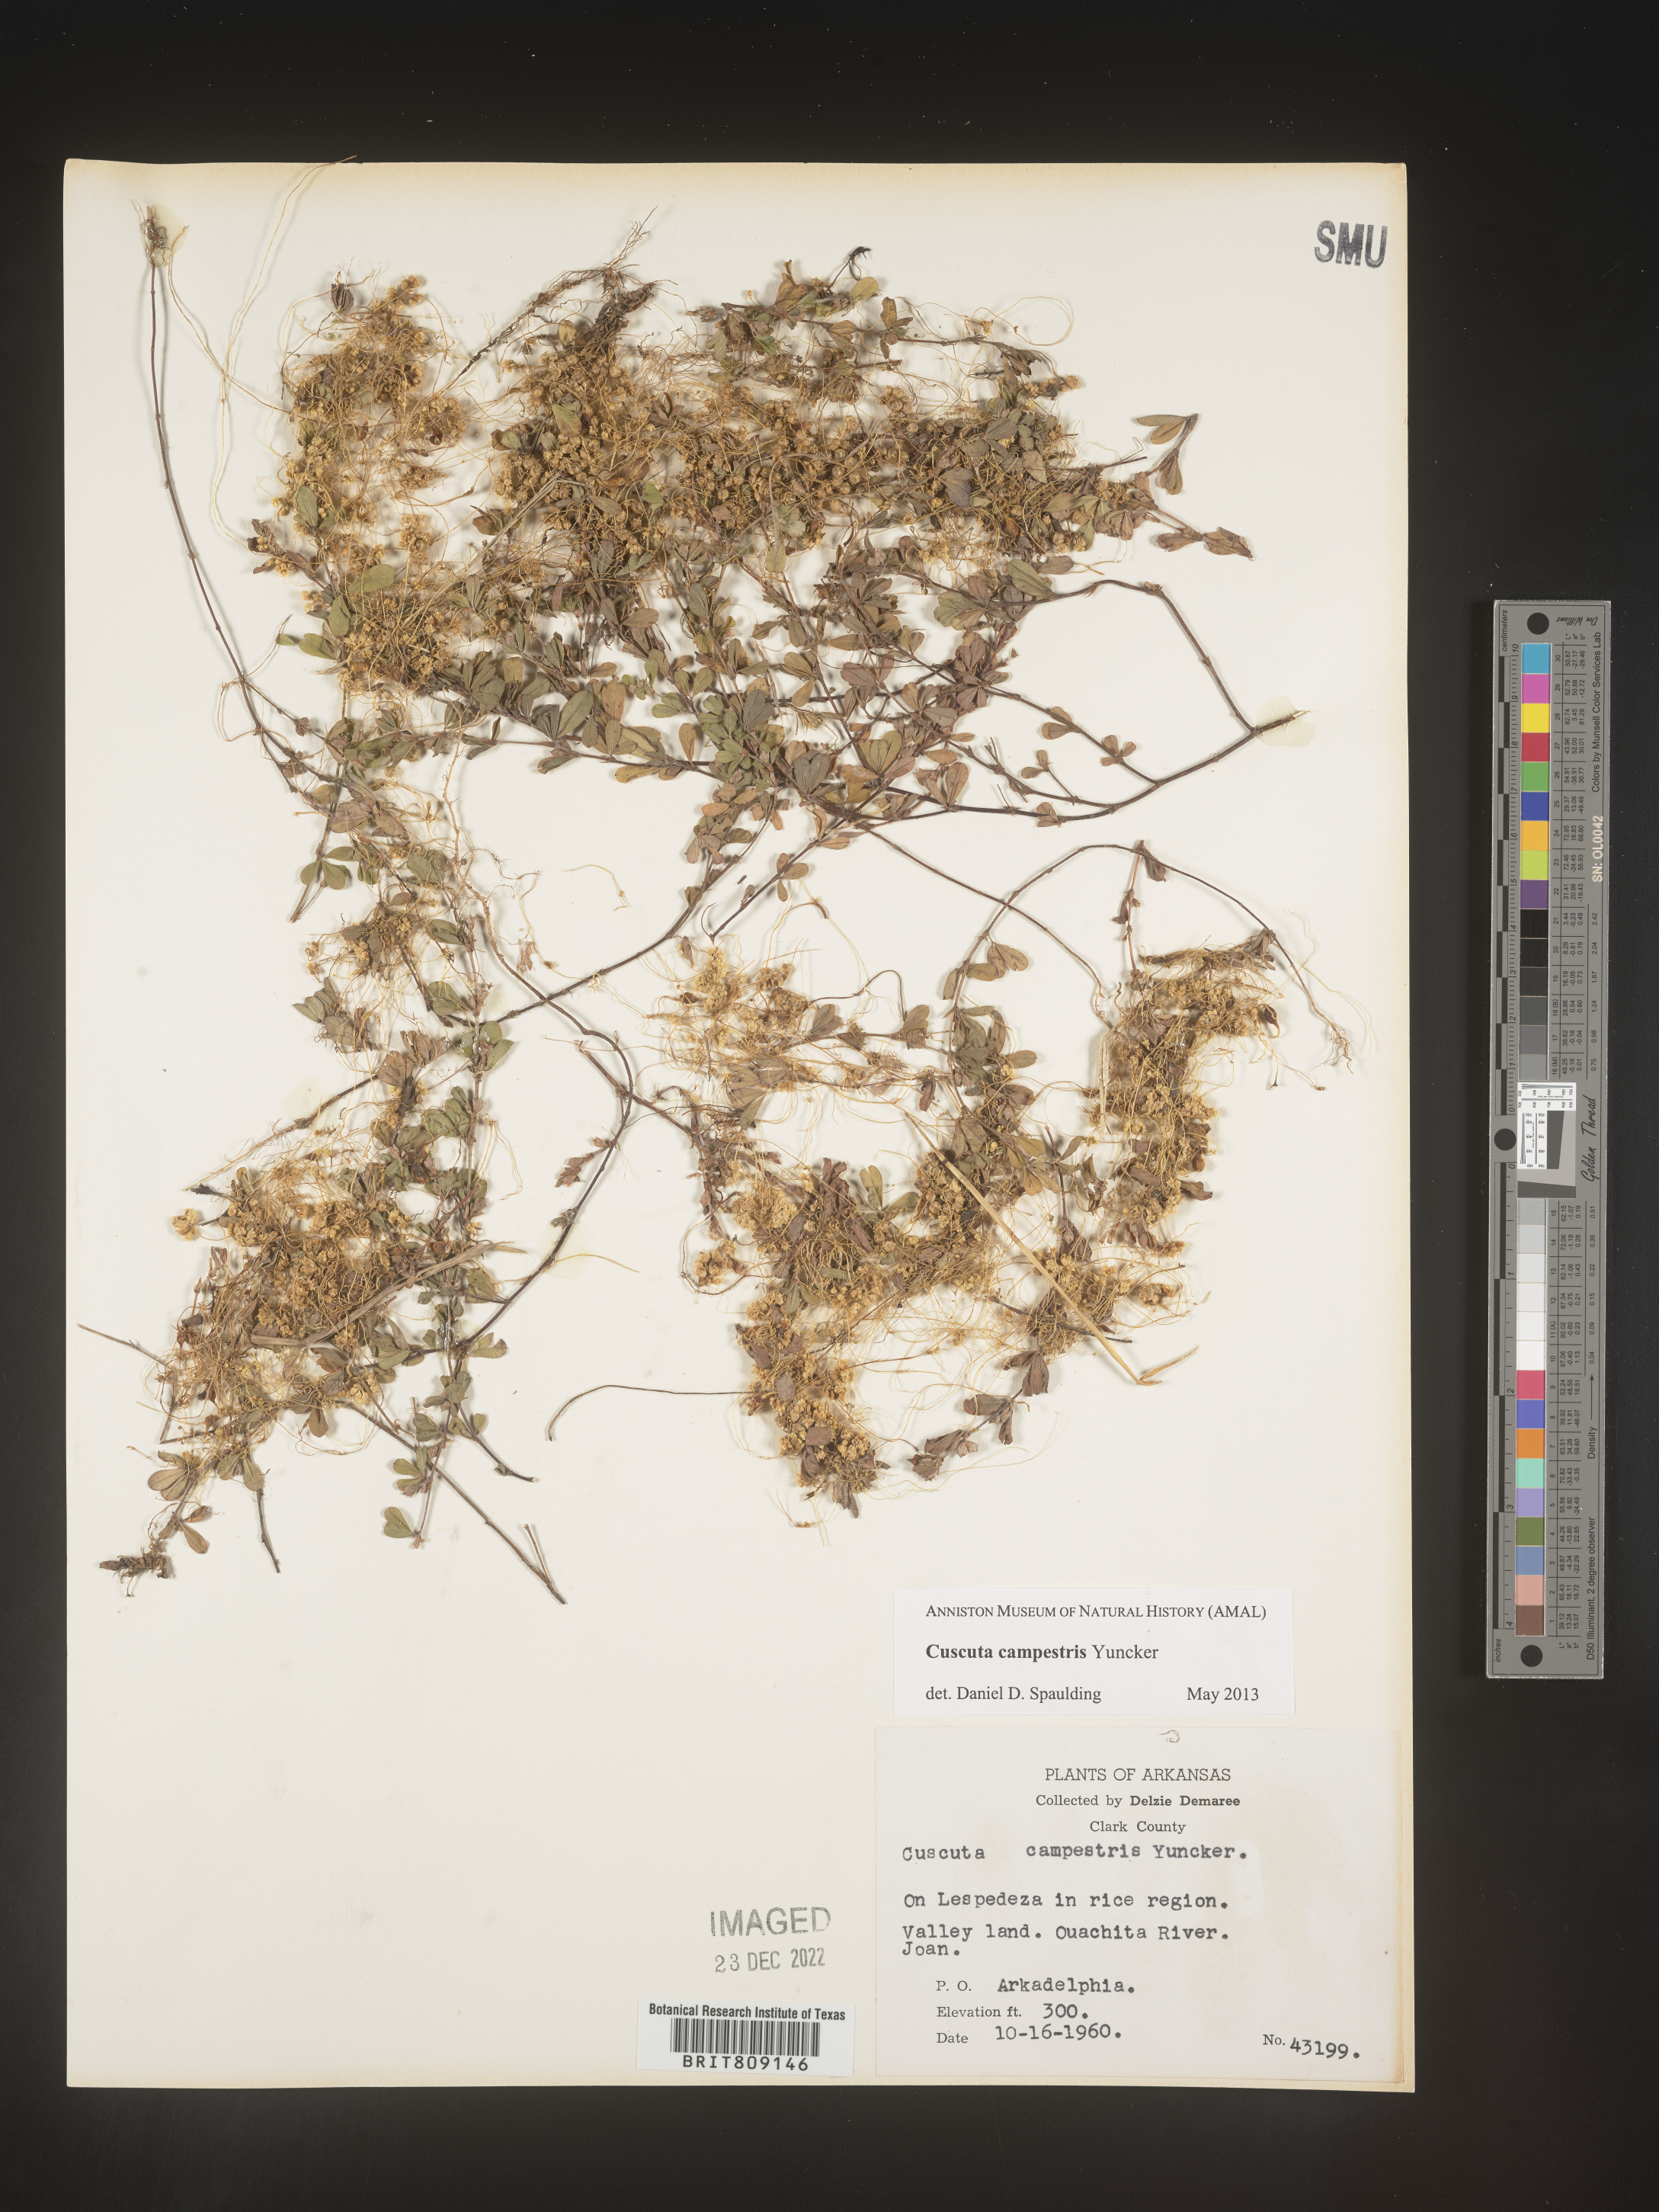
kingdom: Plantae
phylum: Tracheophyta
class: Magnoliopsida
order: Solanales
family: Convolvulaceae
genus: Cuscuta
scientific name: Cuscuta campestris
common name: Yellow dodder
